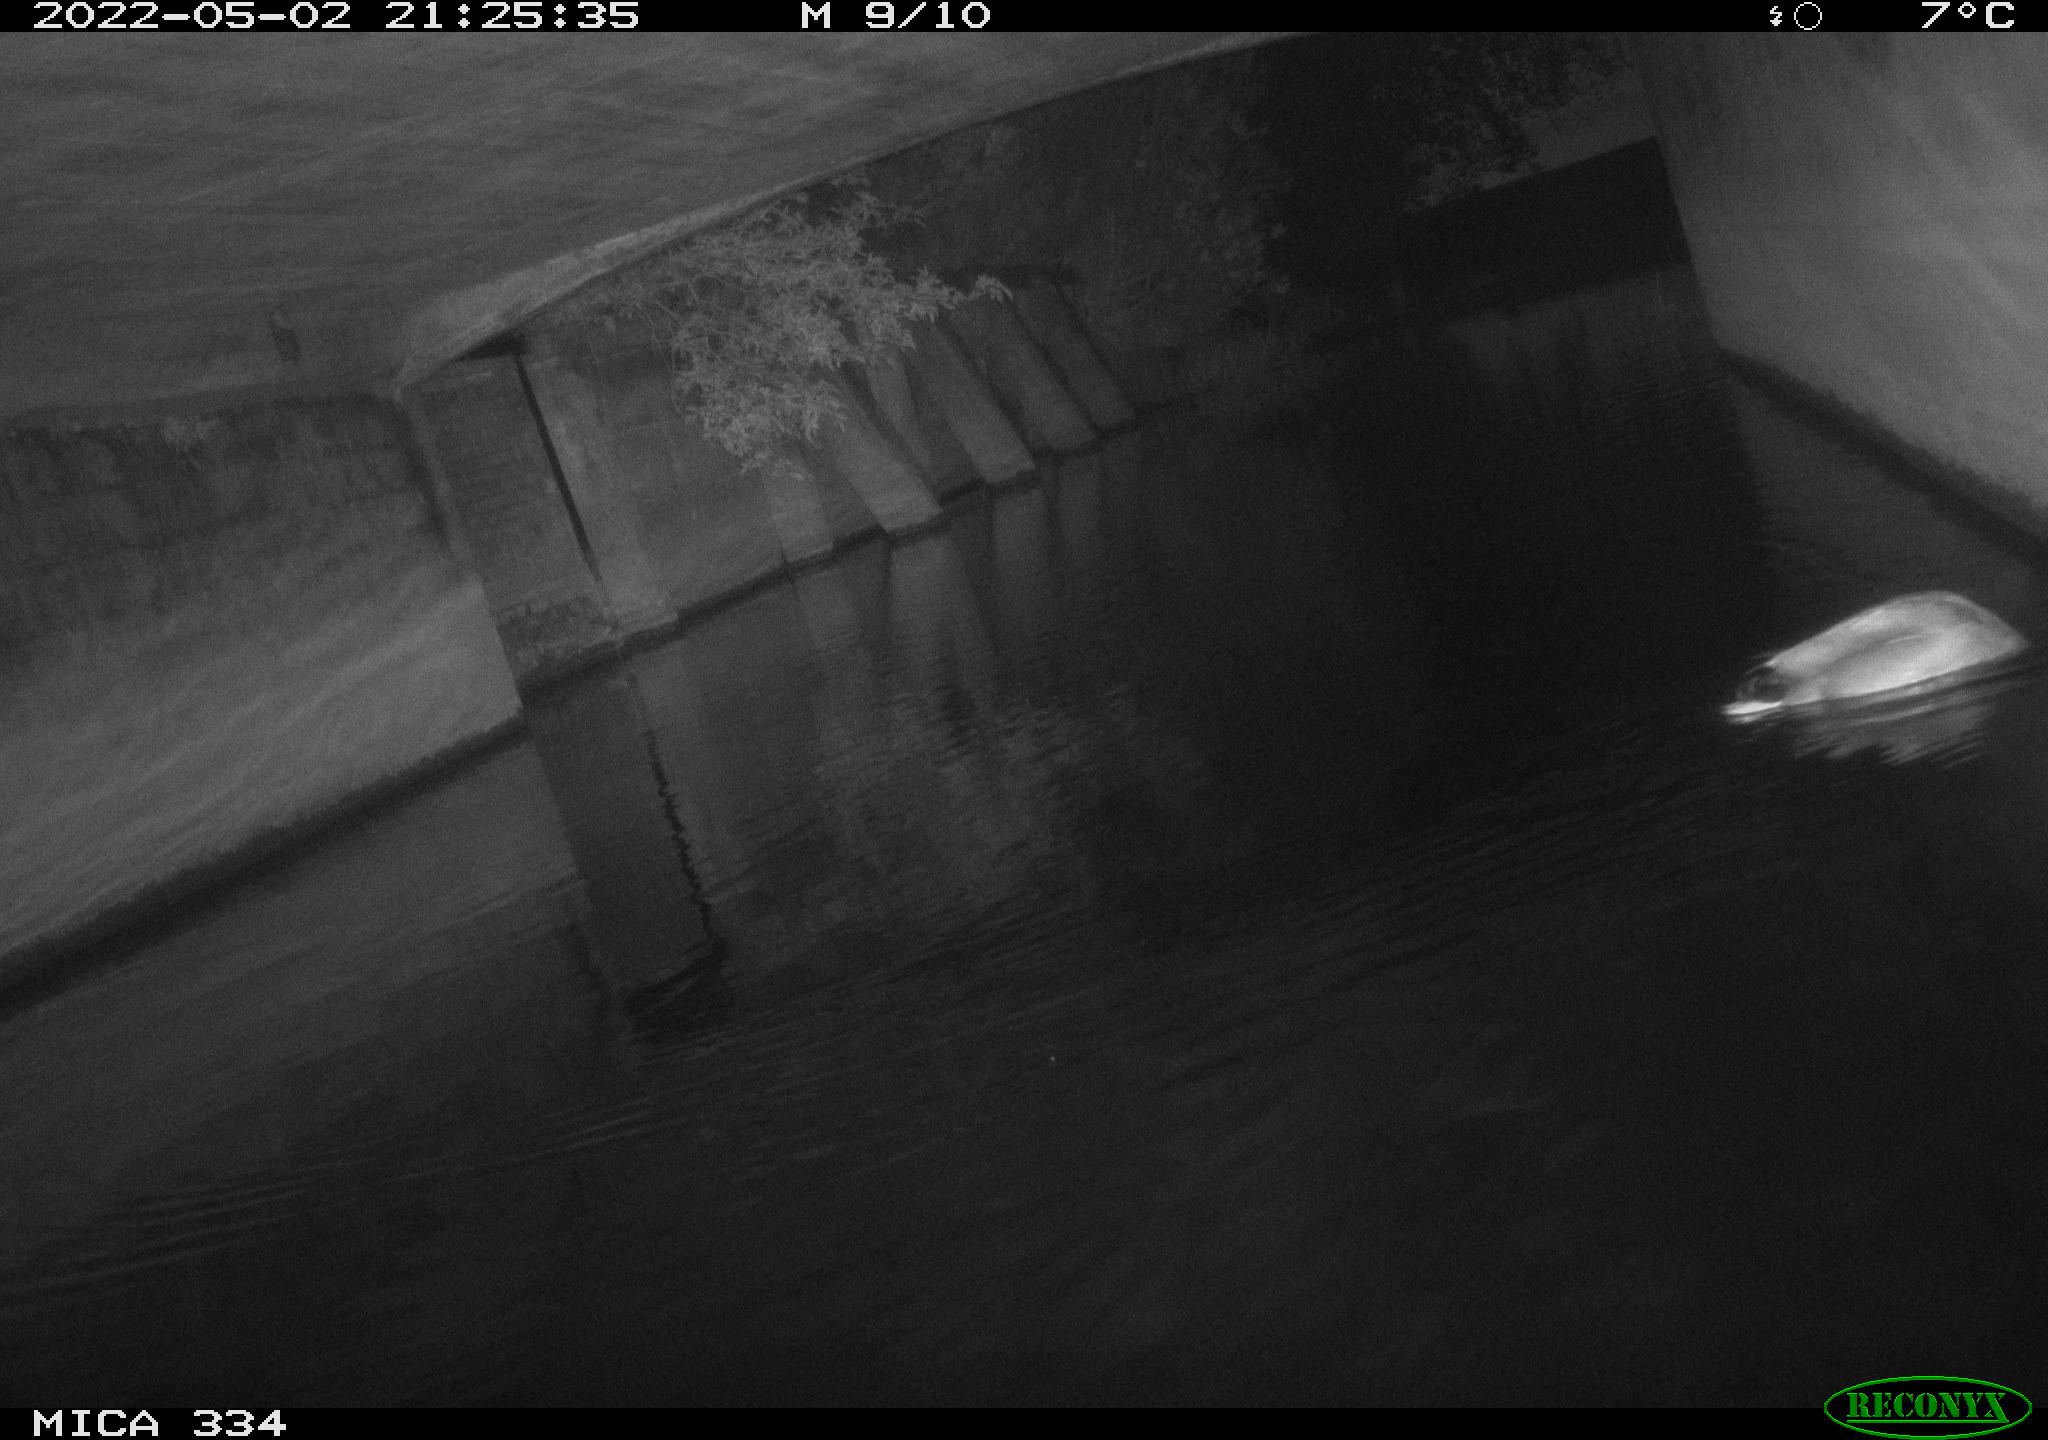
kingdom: Animalia
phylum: Chordata
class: Aves
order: Anseriformes
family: Anatidae
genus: Anas
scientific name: Anas platyrhynchos
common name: Mallard
